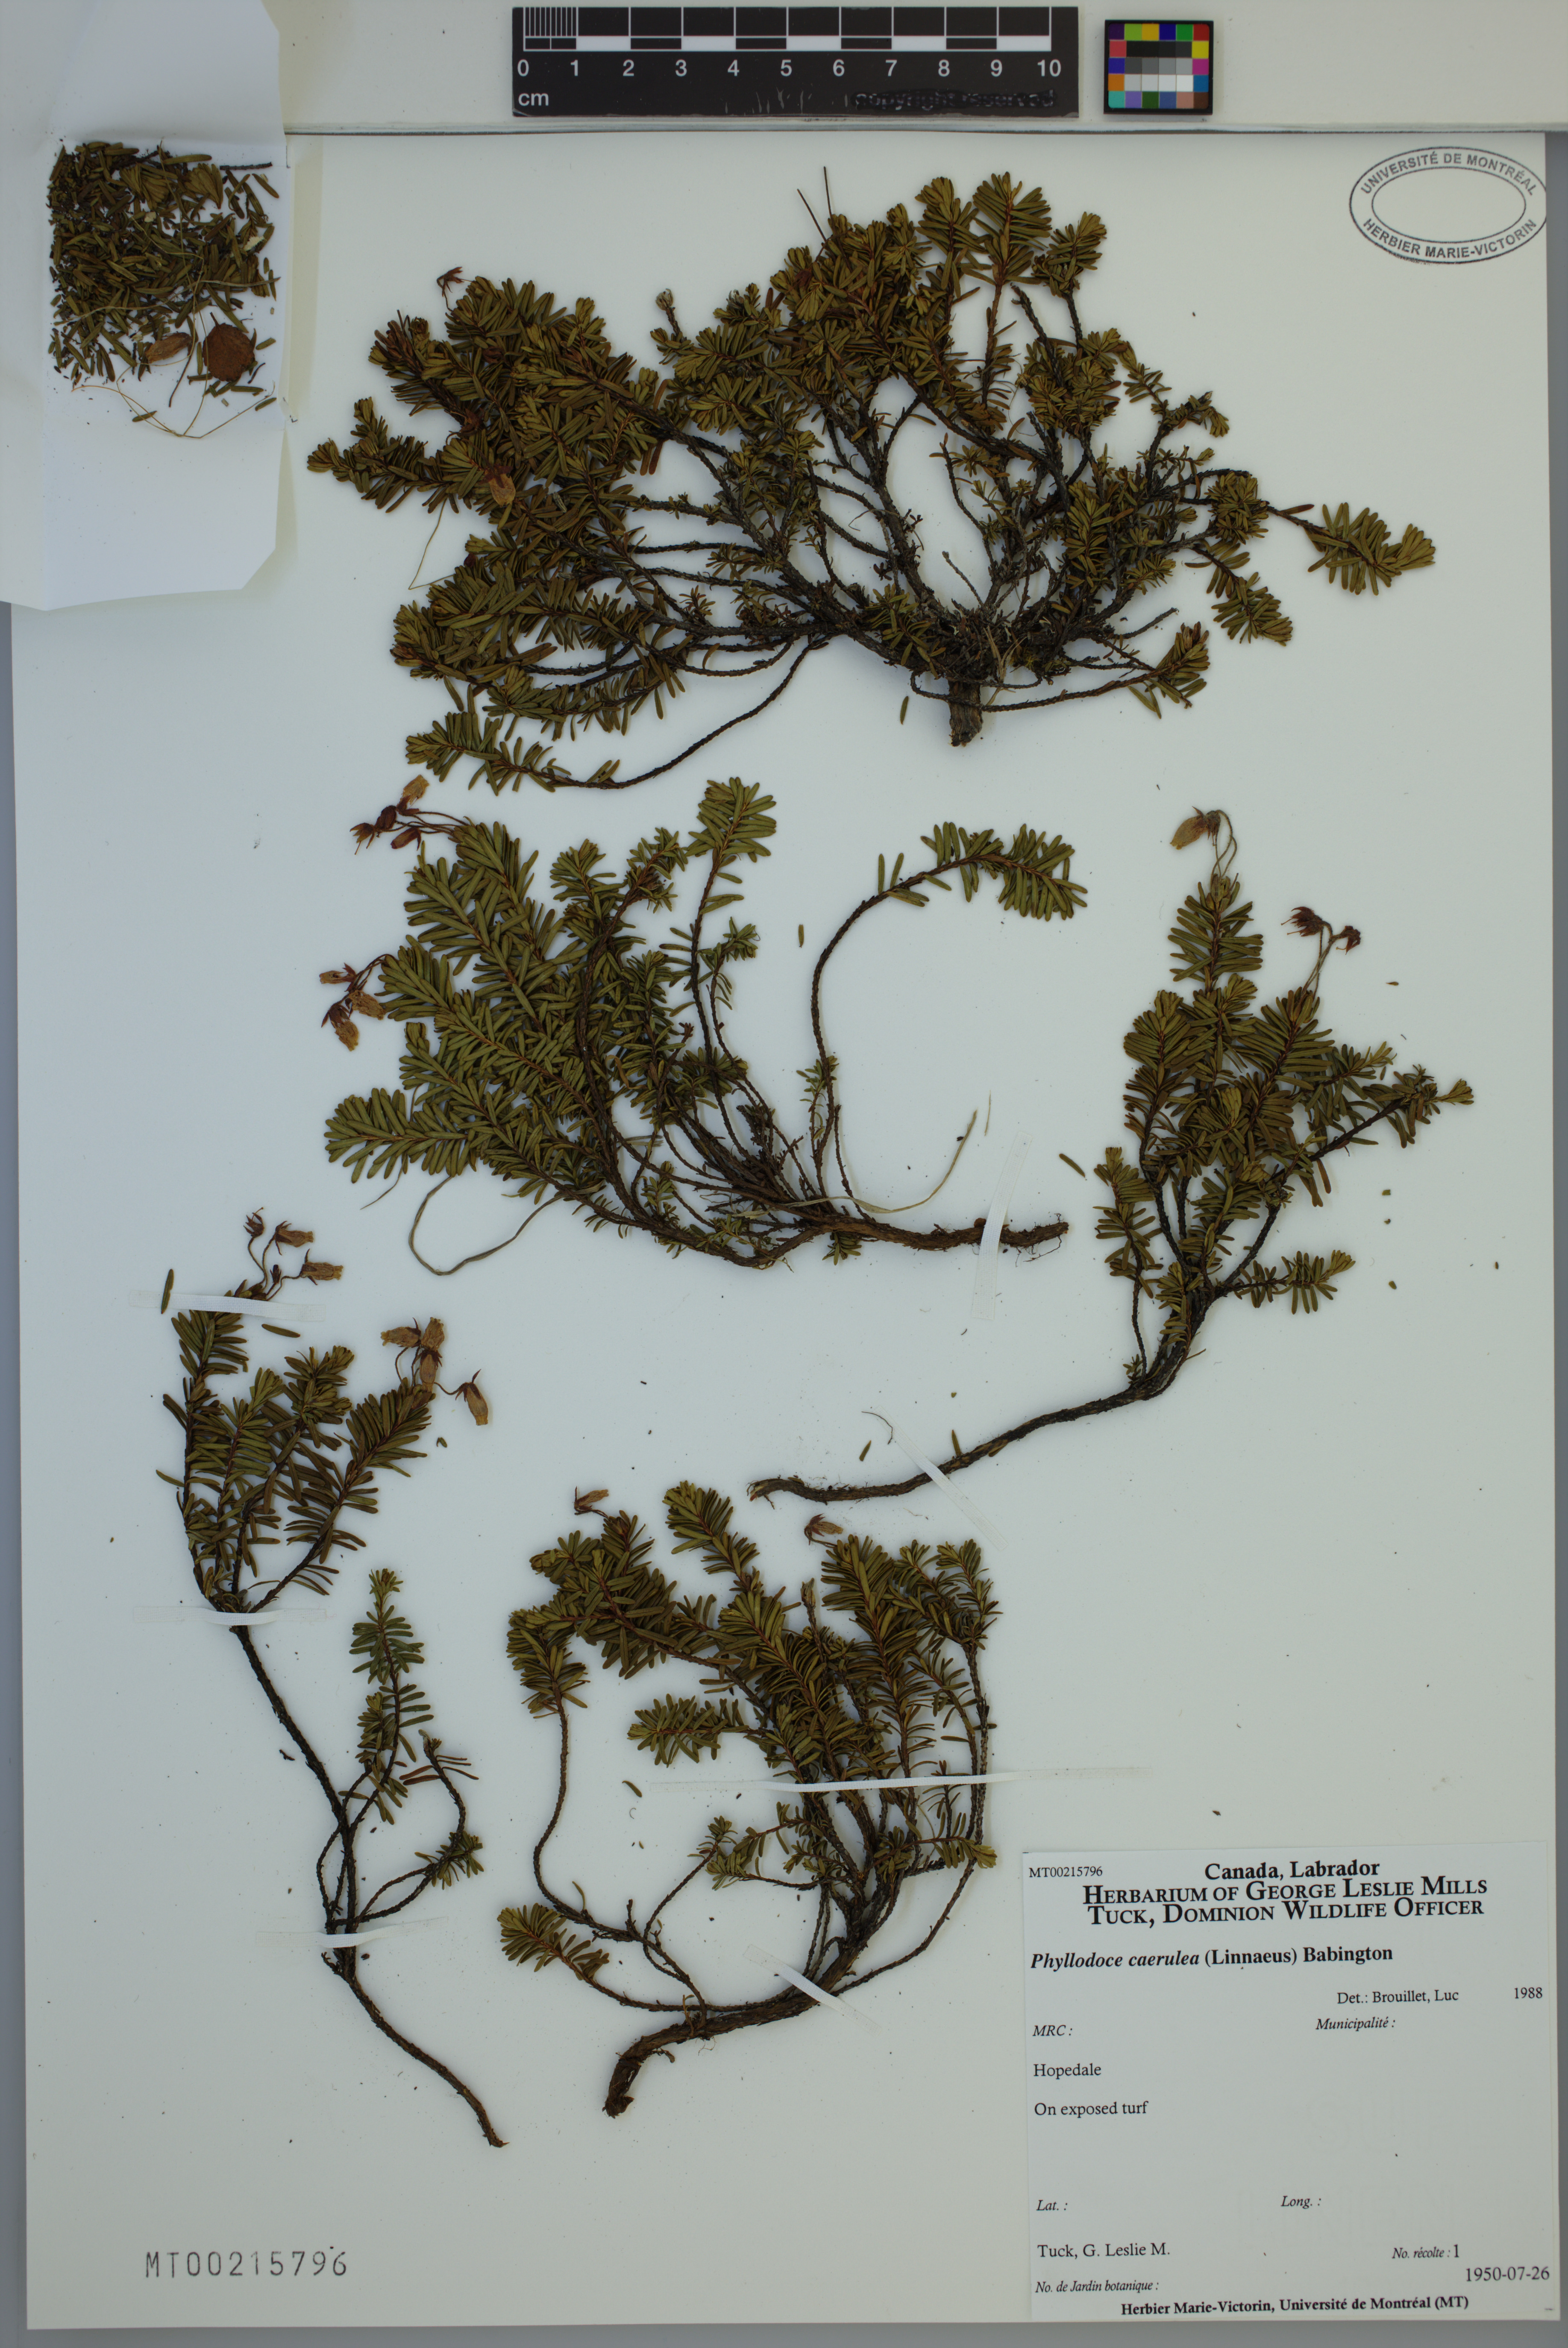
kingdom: Plantae
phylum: Tracheophyta
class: Magnoliopsida
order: Ericales
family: Ericaceae
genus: Phyllodoce
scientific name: Phyllodoce caerulea
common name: Blue heath
